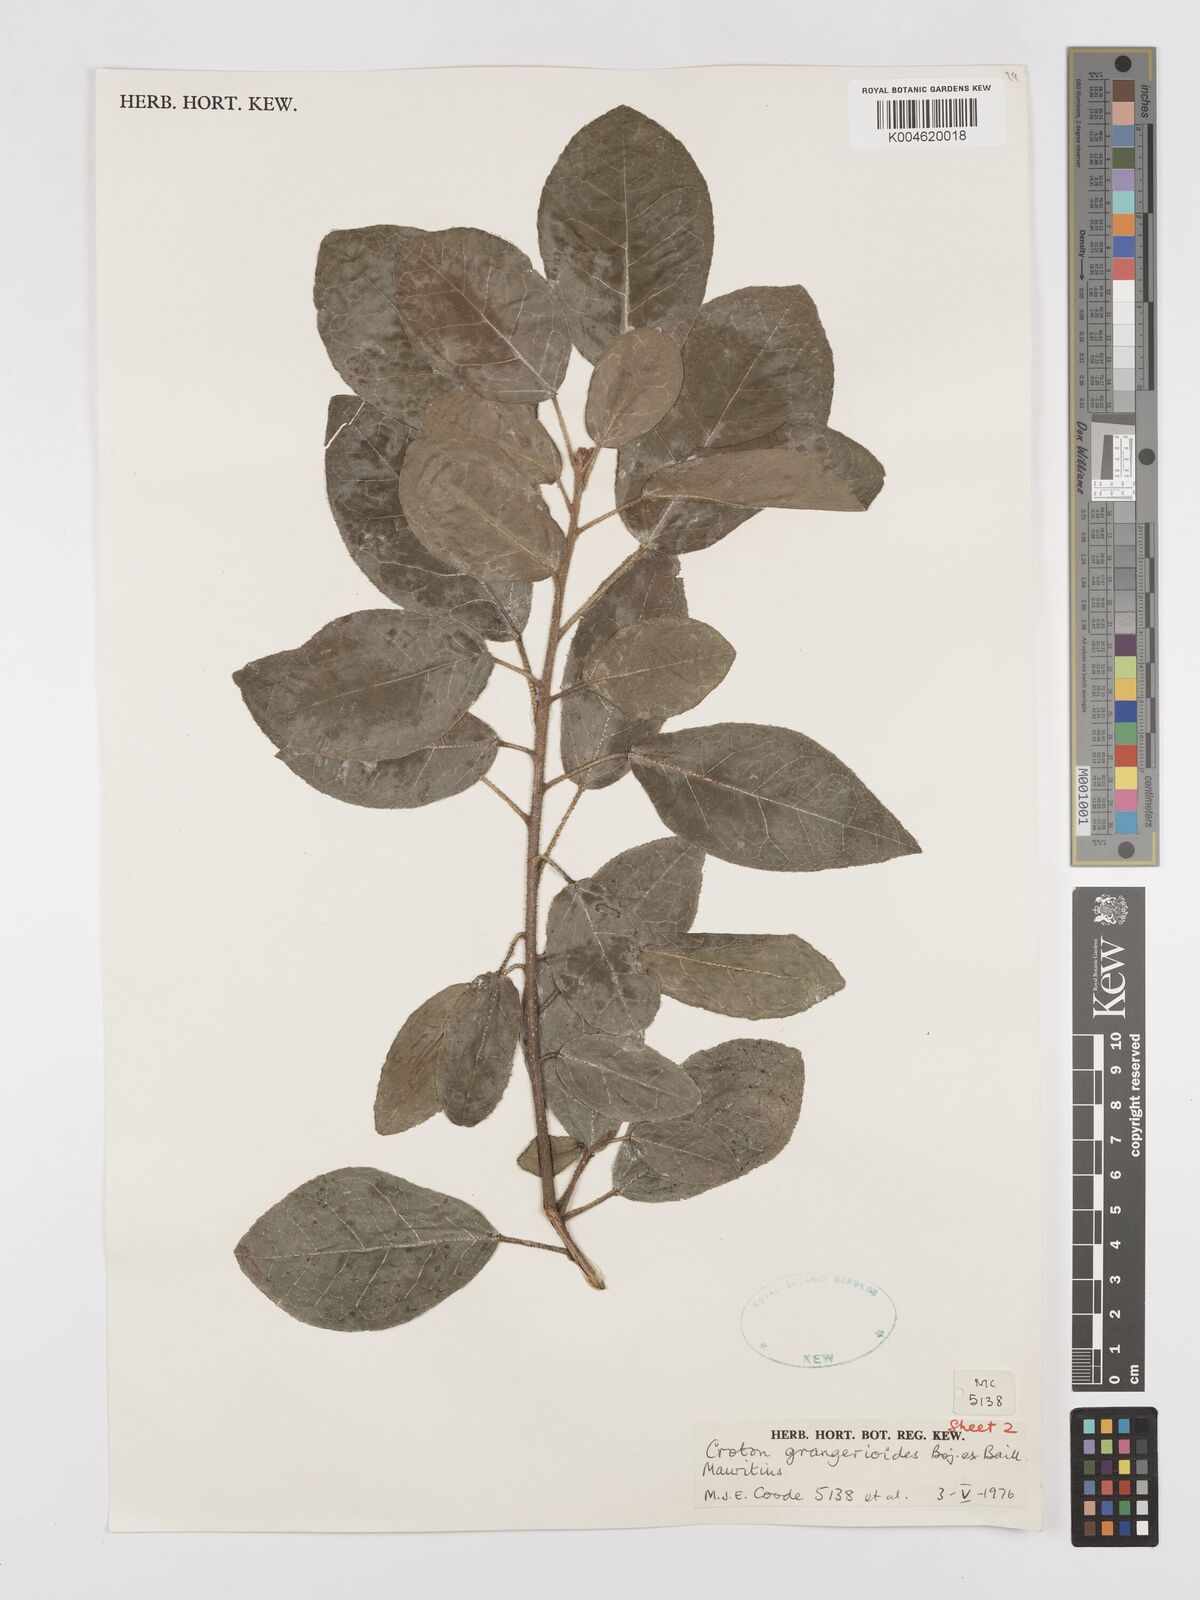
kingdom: Plantae
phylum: Tracheophyta
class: Magnoliopsida
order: Malpighiales
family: Euphorbiaceae
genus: Croton
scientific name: Croton grangerioides
